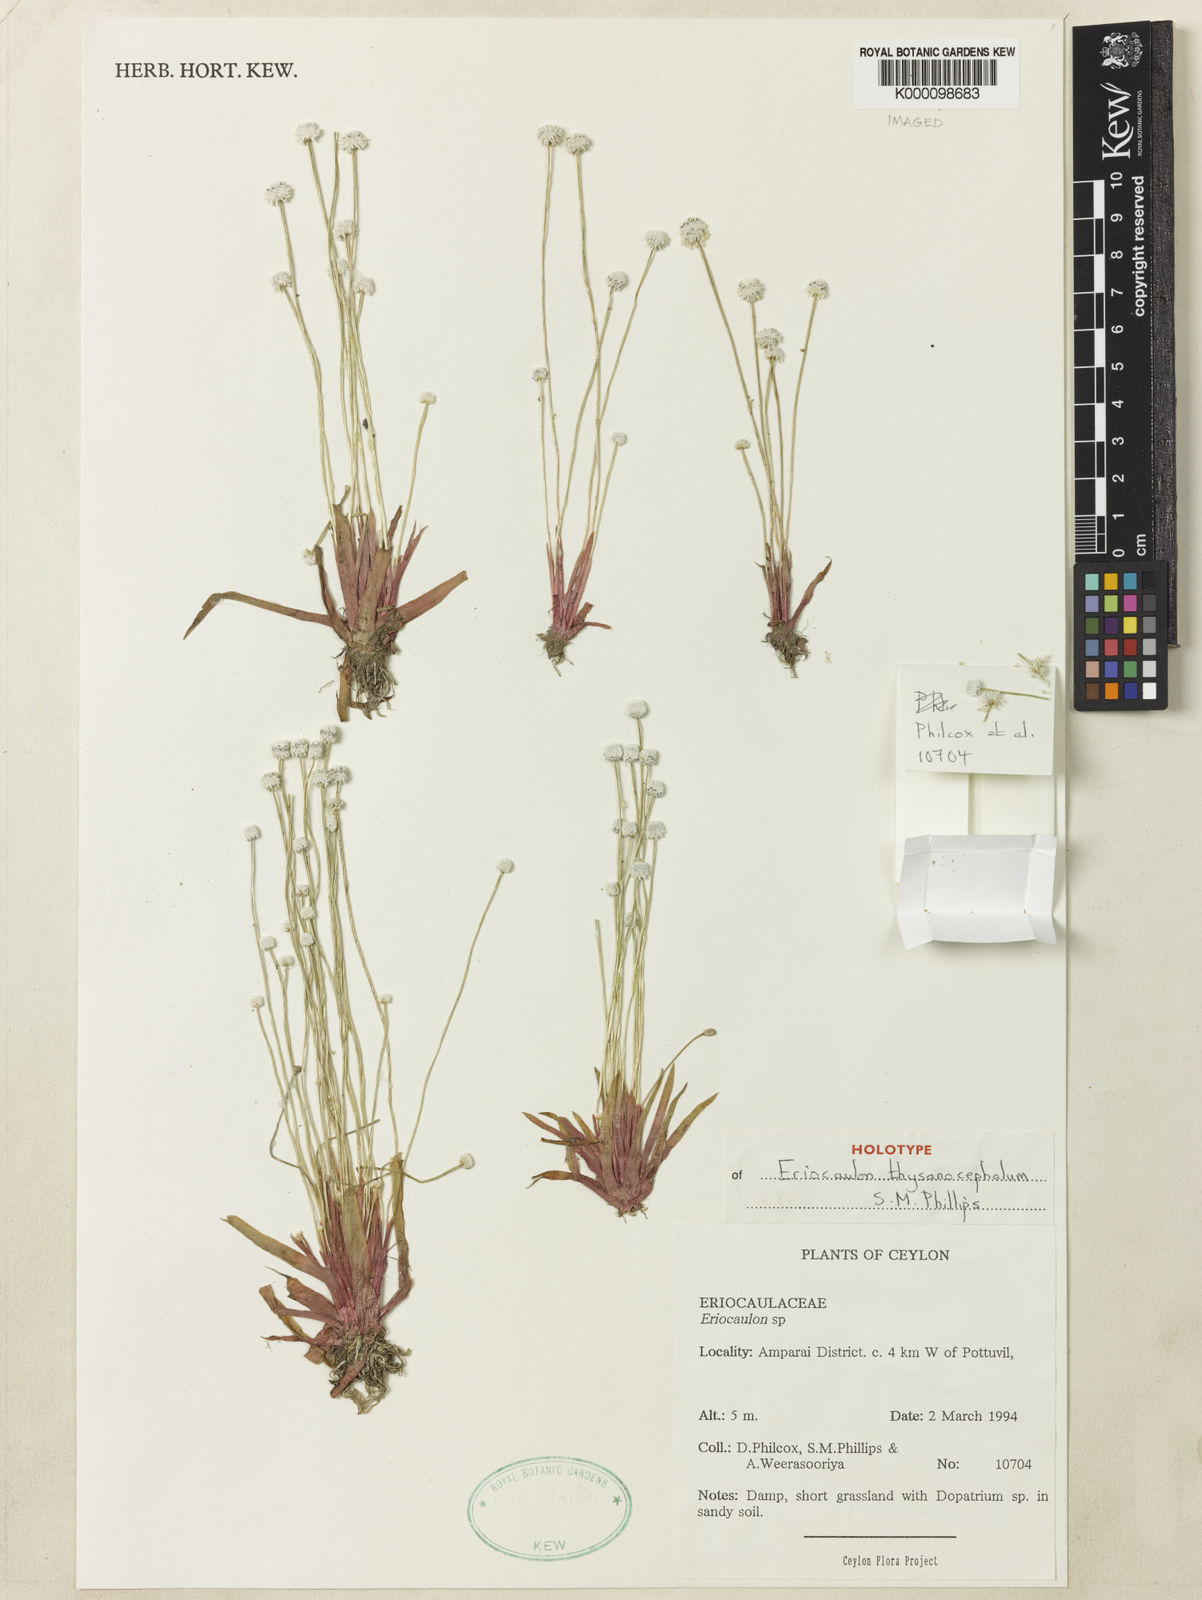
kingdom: Plantae
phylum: Tracheophyta
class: Liliopsida
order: Poales
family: Eriocaulaceae
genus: Eriocaulon
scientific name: Eriocaulon thysanocephalum
